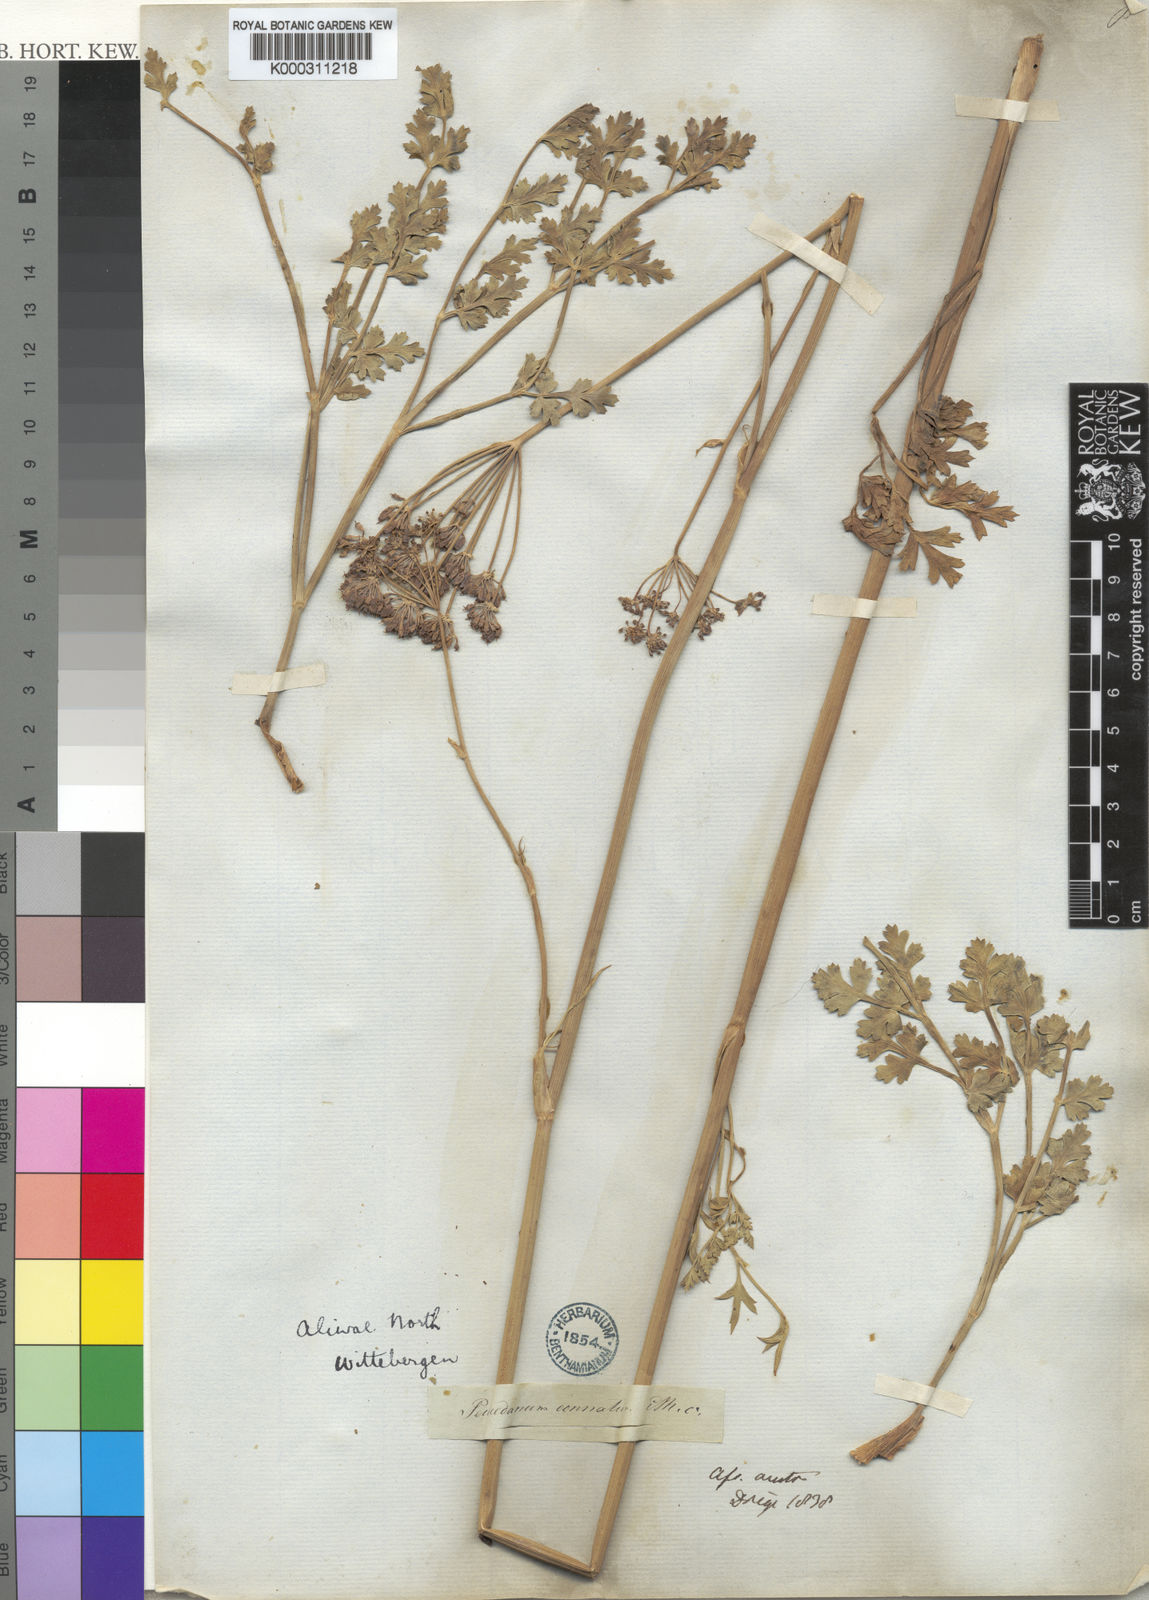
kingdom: Plantae
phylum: Tracheophyta
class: Magnoliopsida
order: Apiales
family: Apiaceae
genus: Peucedanum
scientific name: Peucedanum
